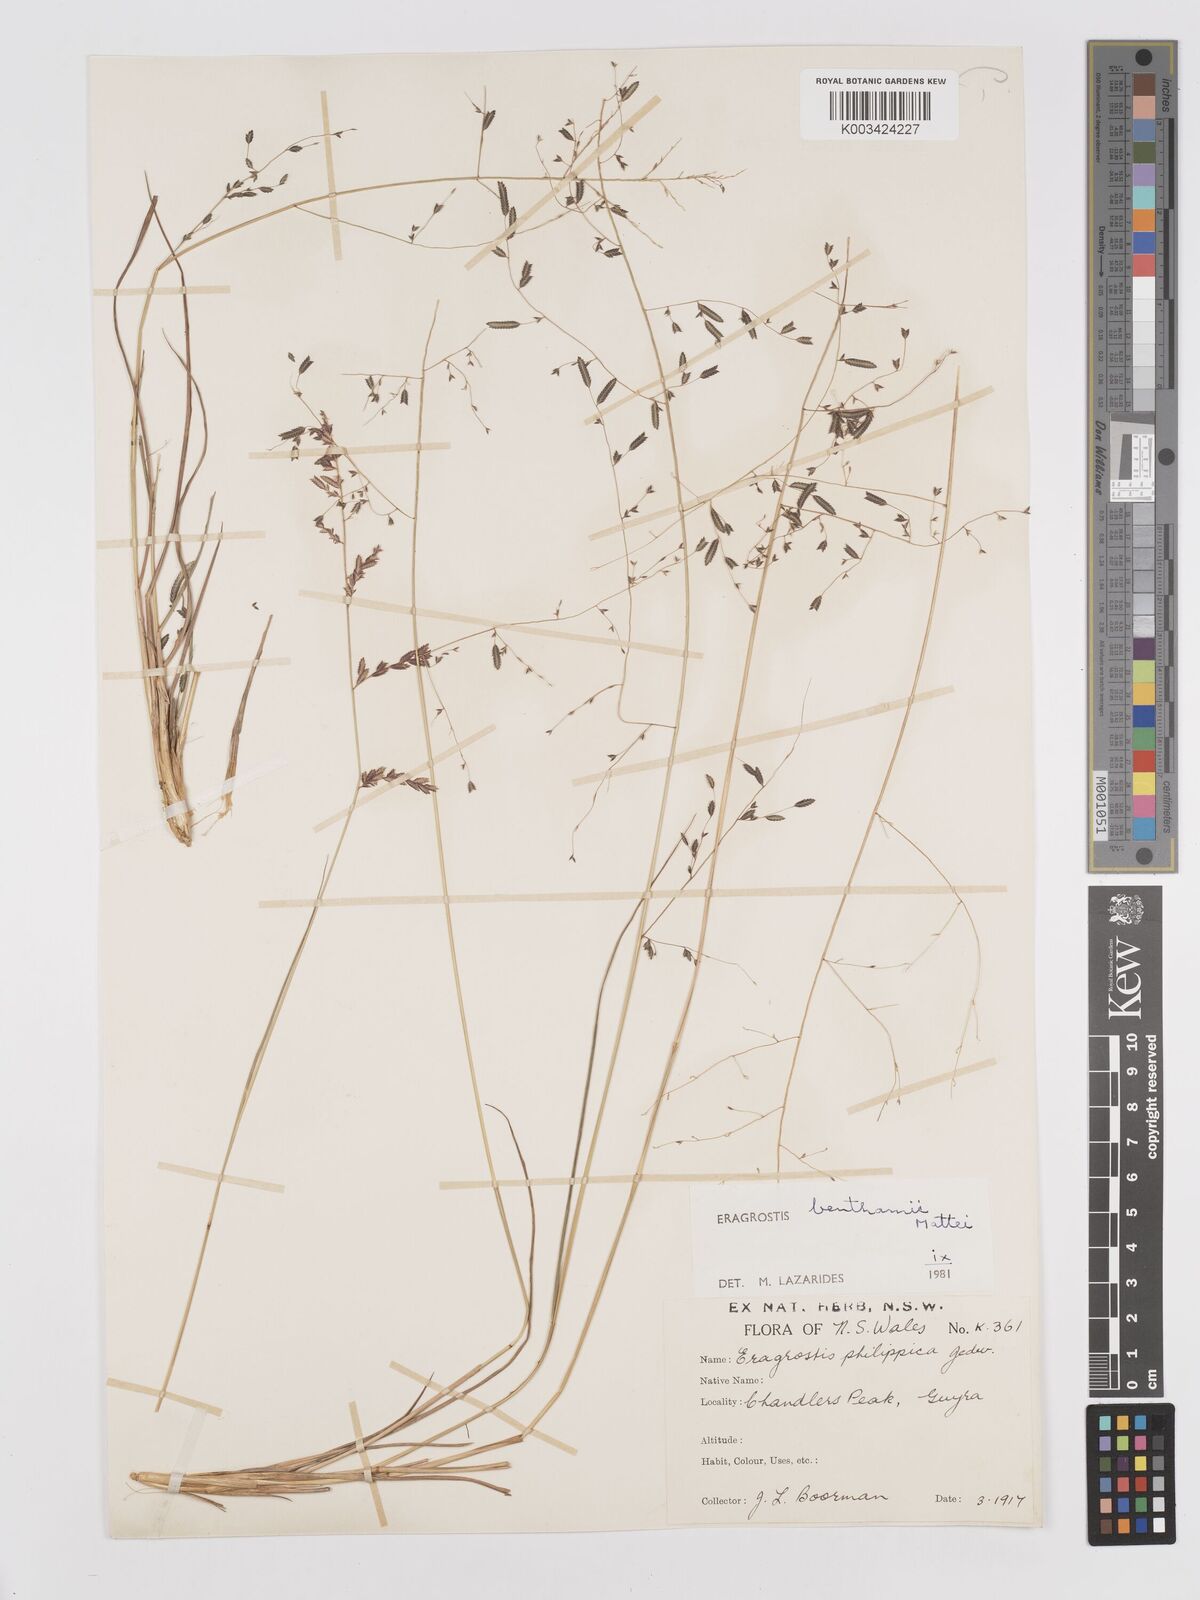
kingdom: Plantae
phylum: Tracheophyta
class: Liliopsida
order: Poales
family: Poaceae
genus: Eragrostis
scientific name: Eragrostis brownii
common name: Lovegrass
